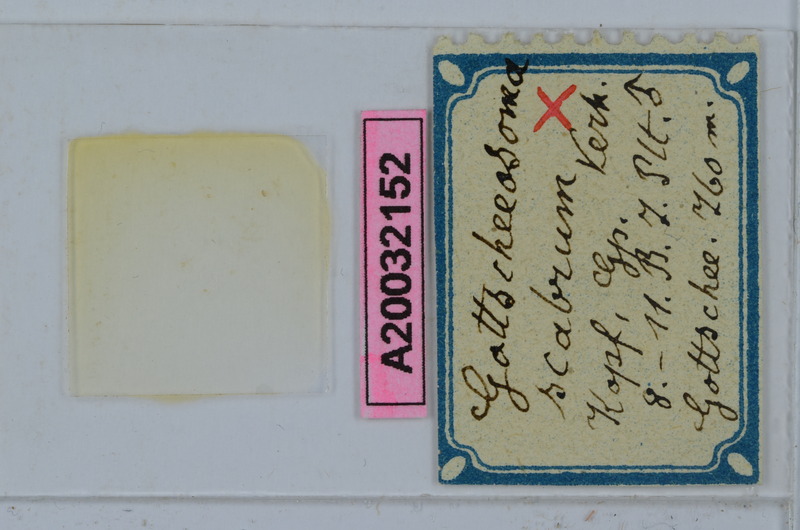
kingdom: Animalia
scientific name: Animalia
